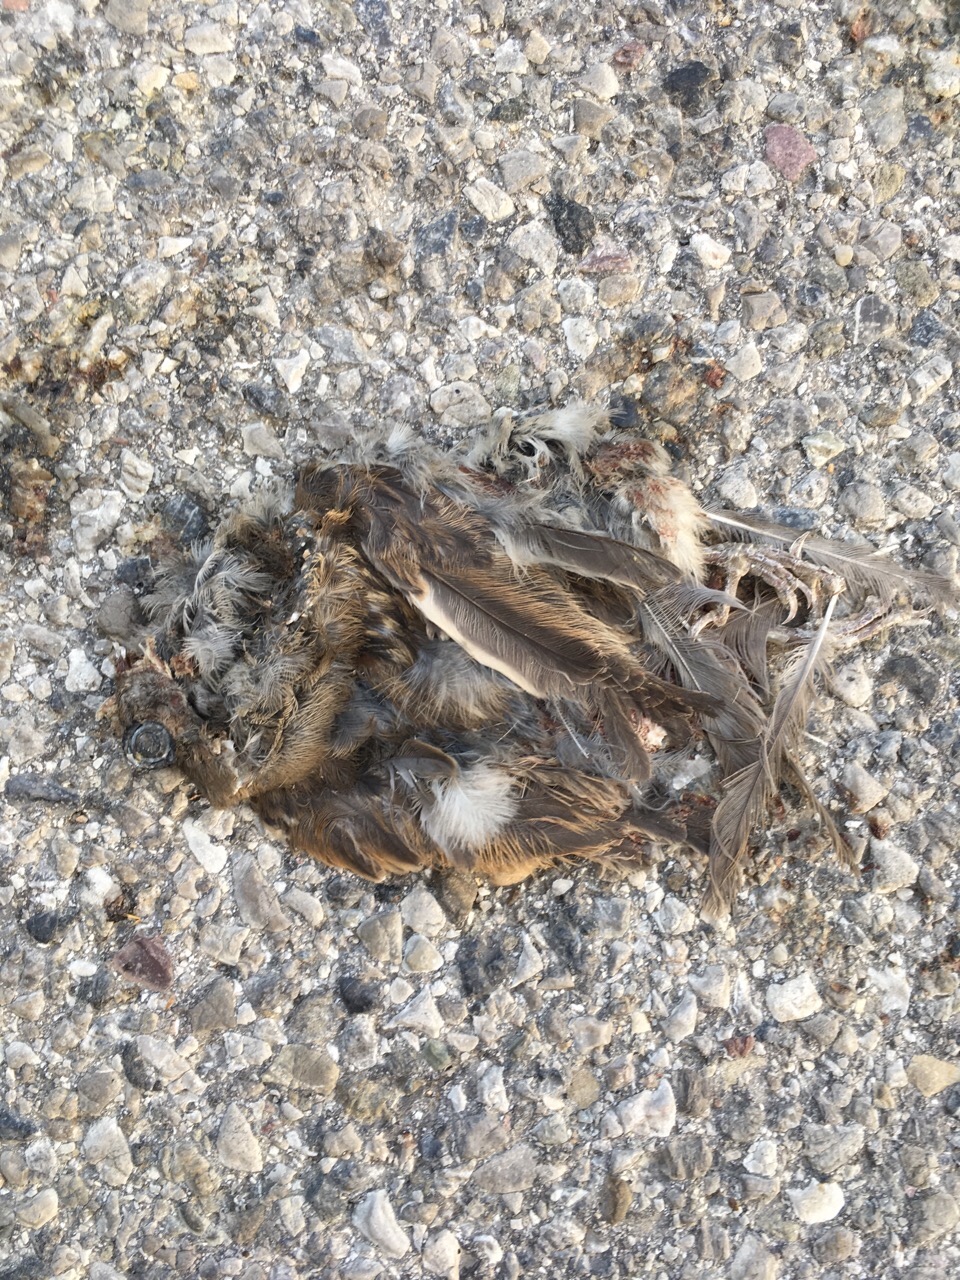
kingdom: Animalia
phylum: Chordata
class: Aves
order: Passeriformes
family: Passeridae
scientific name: Passeridae
